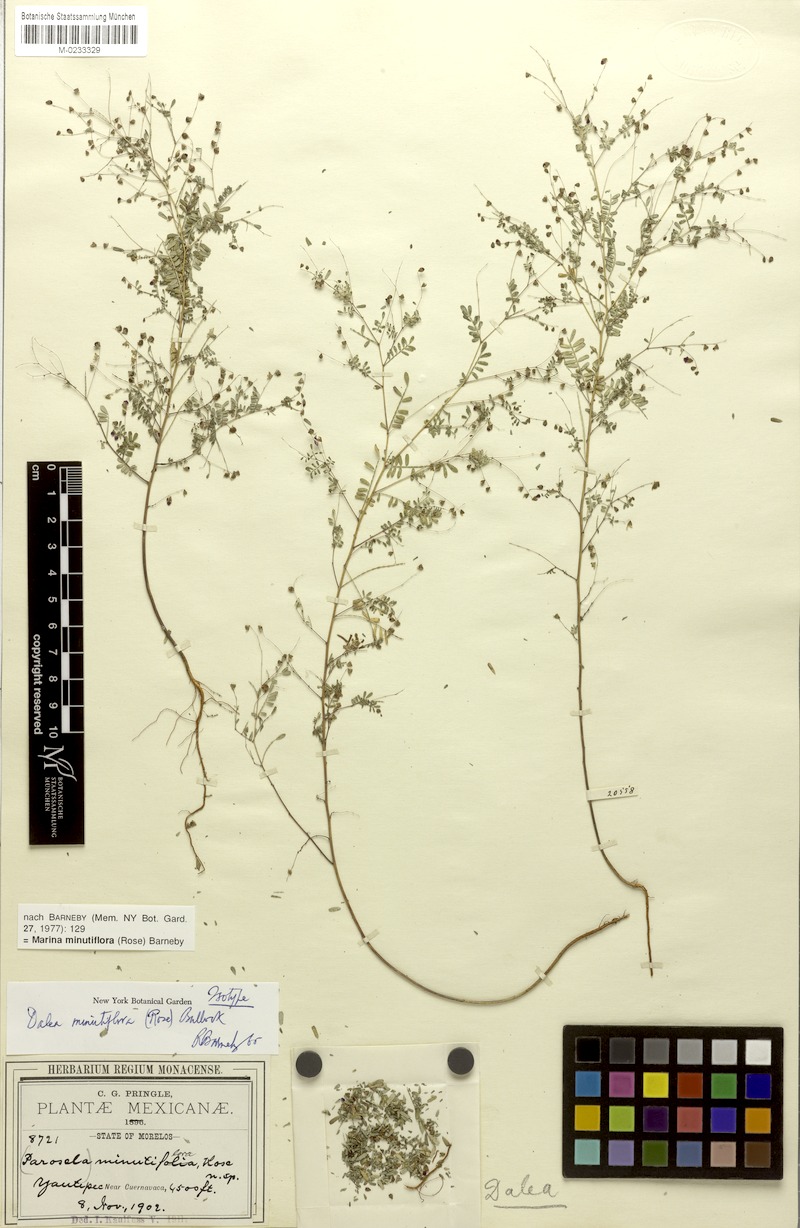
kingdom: Plantae
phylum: Tracheophyta
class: Magnoliopsida
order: Fabales
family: Fabaceae
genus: Marina
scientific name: Marina minutiflora
